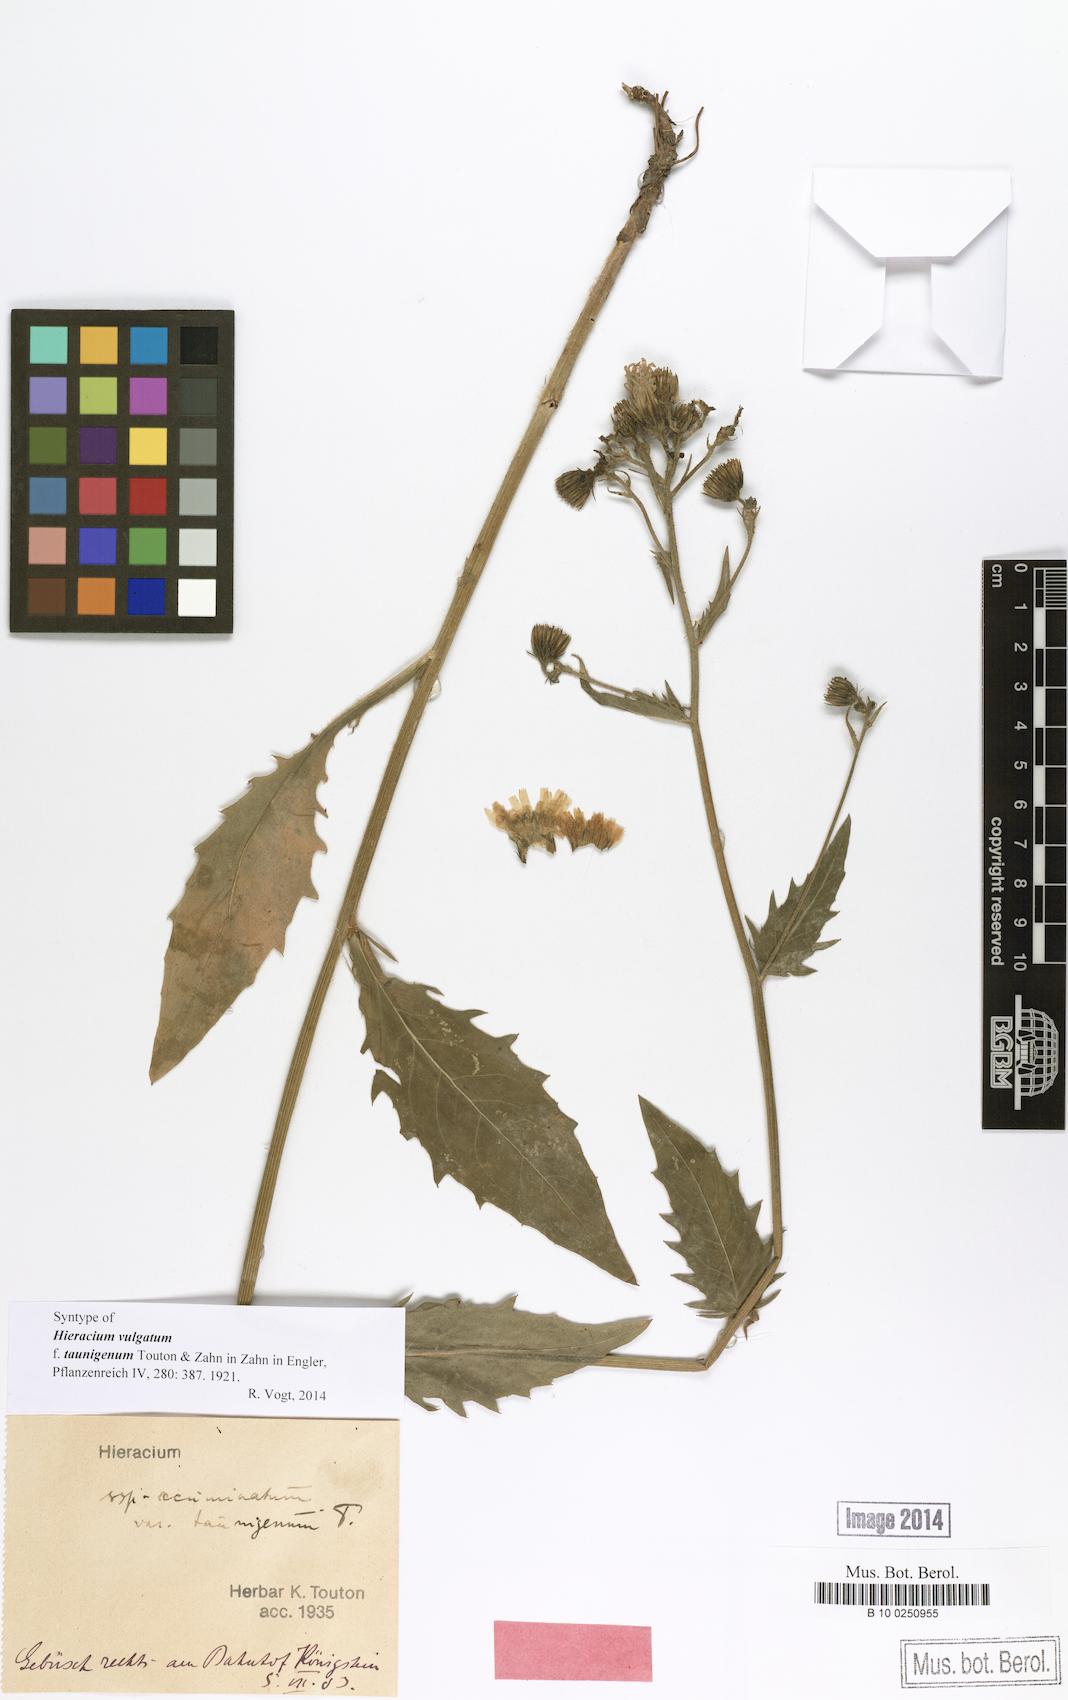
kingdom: Plantae
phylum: Tracheophyta
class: Magnoliopsida
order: Asterales
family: Asteraceae
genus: Hieracium
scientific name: Hieracium vulgatum
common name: Common hawkweed
